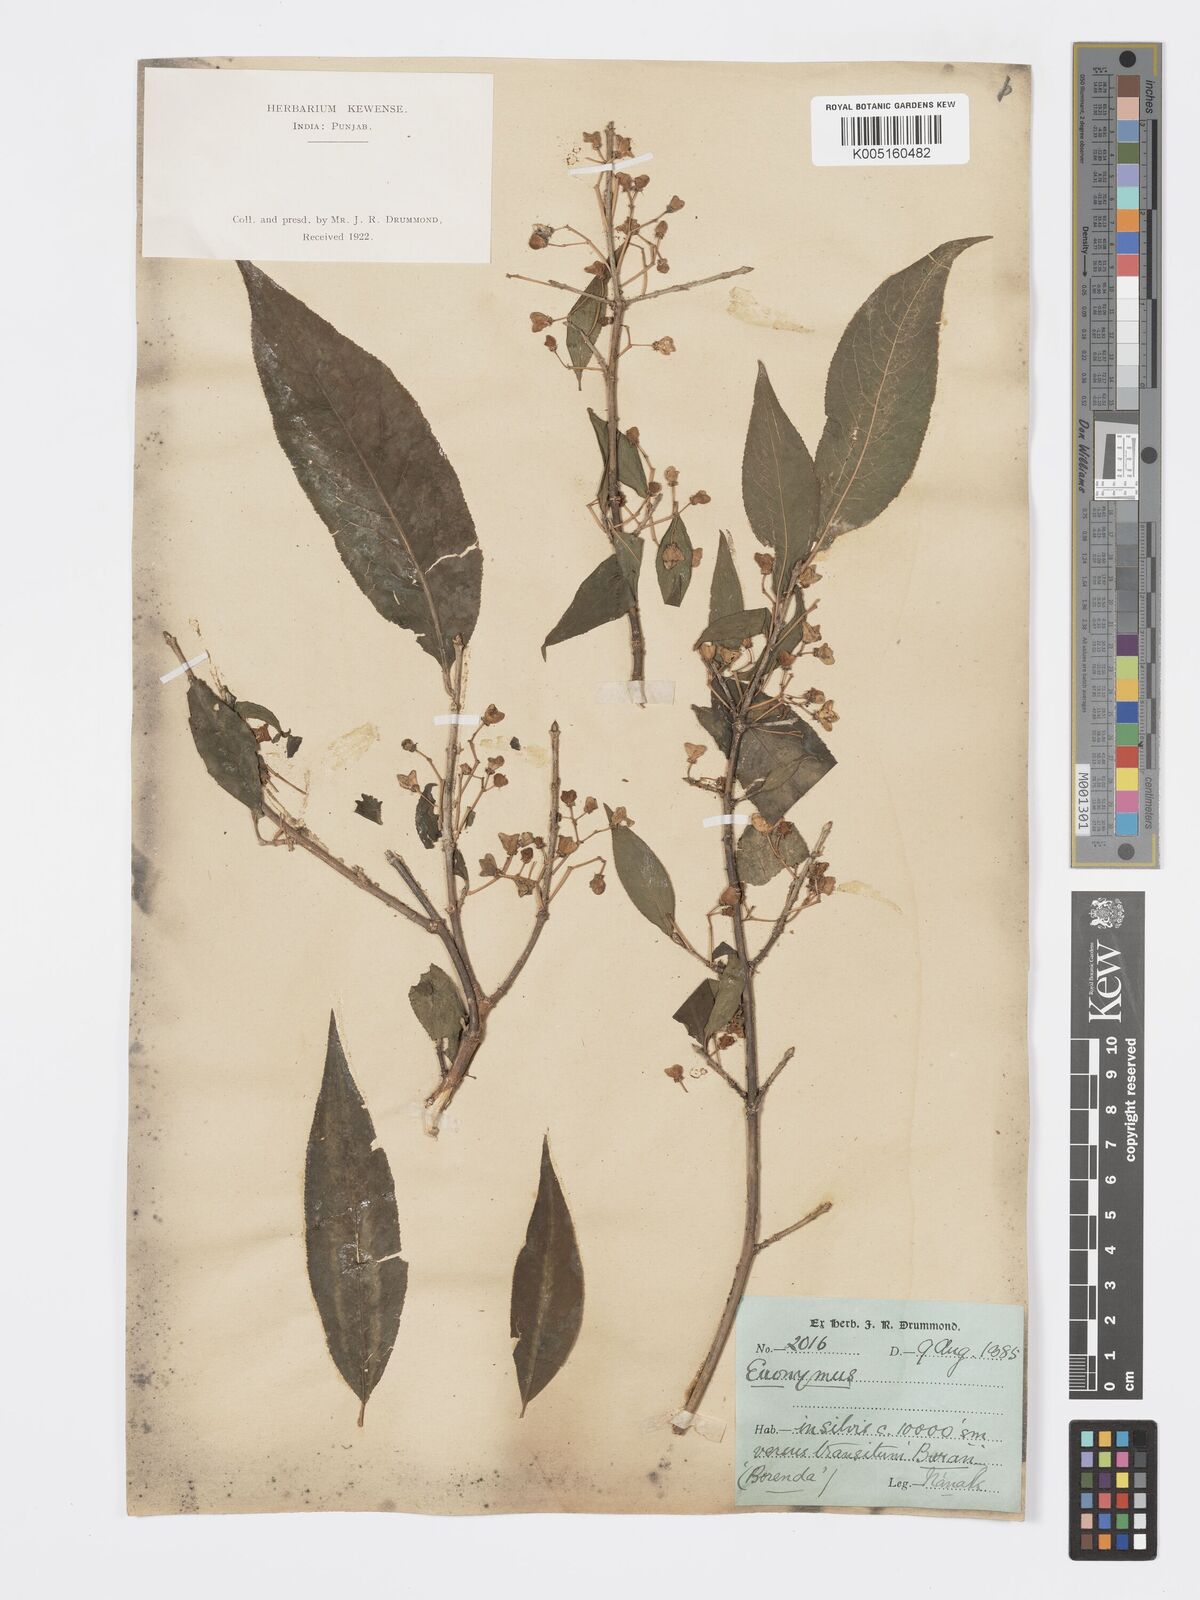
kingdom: Plantae
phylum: Tracheophyta
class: Magnoliopsida
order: Celastrales
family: Celastraceae
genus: Euonymus
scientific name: Euonymus
